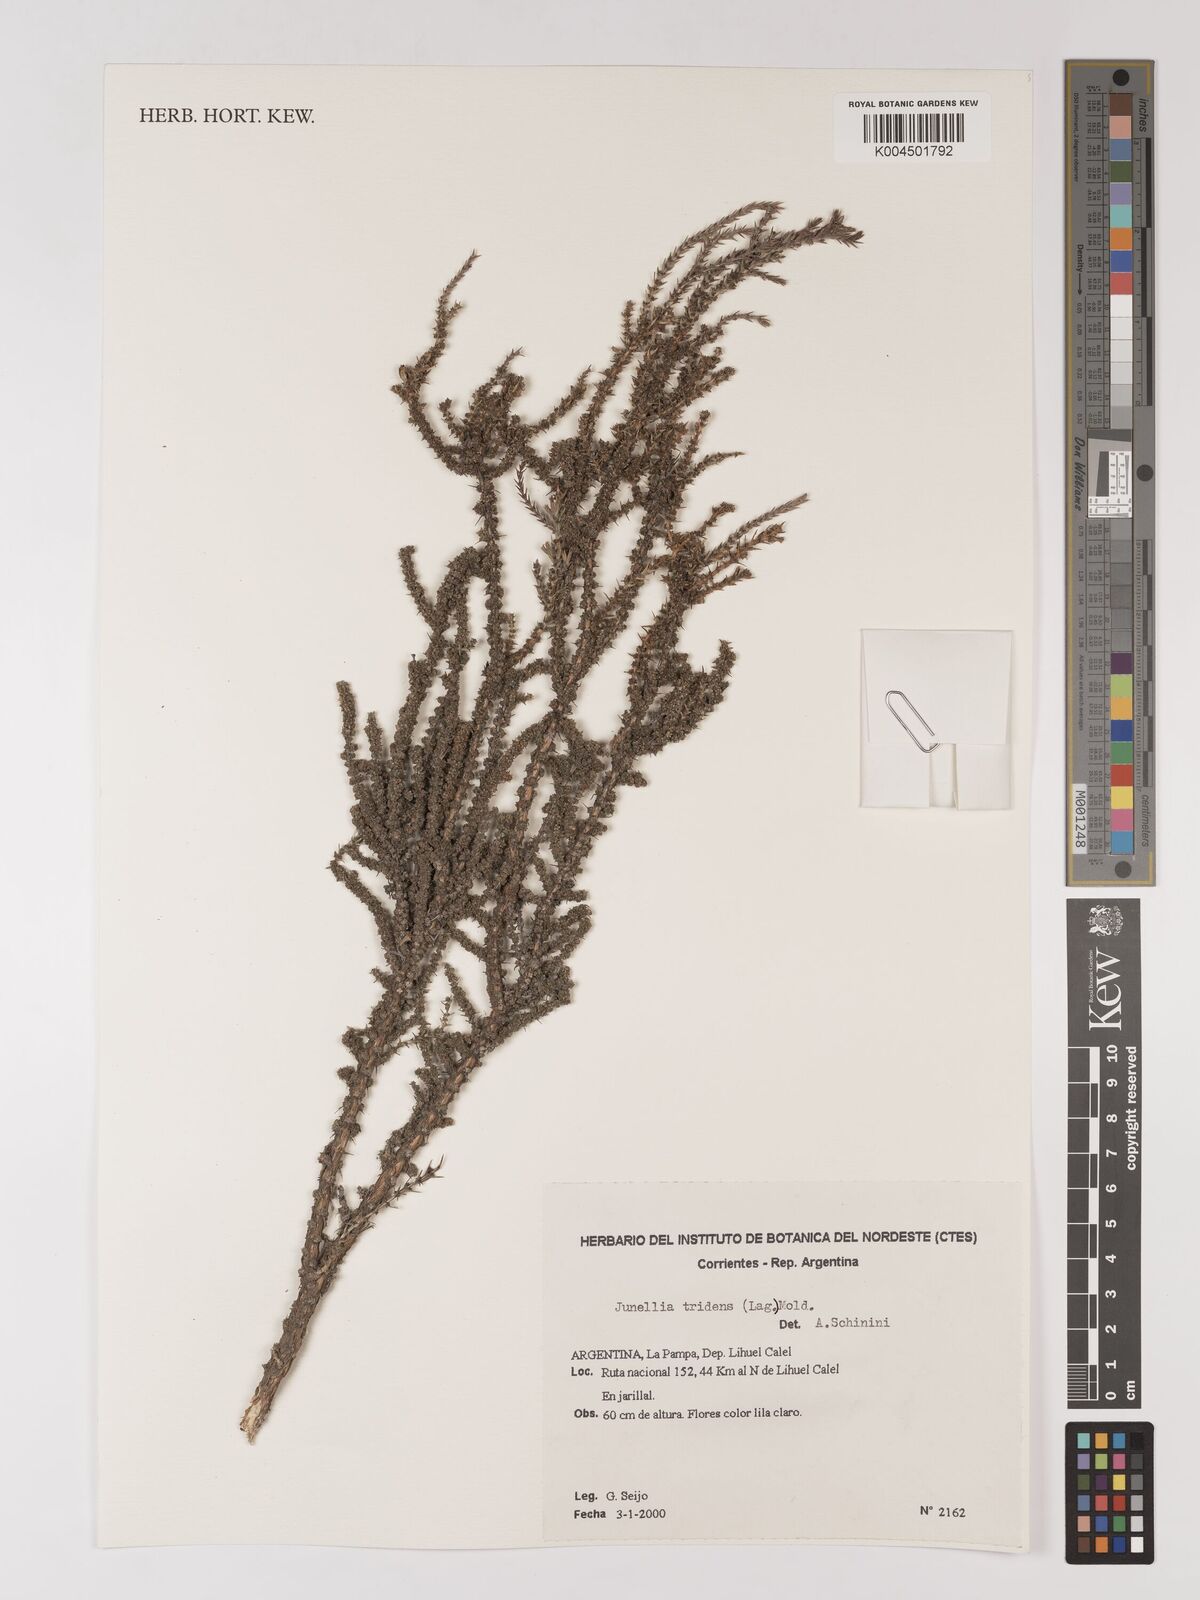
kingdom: Plantae
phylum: Tracheophyta
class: Magnoliopsida
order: Lamiales
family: Verbenaceae
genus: Mulguraea
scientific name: Mulguraea tridens
